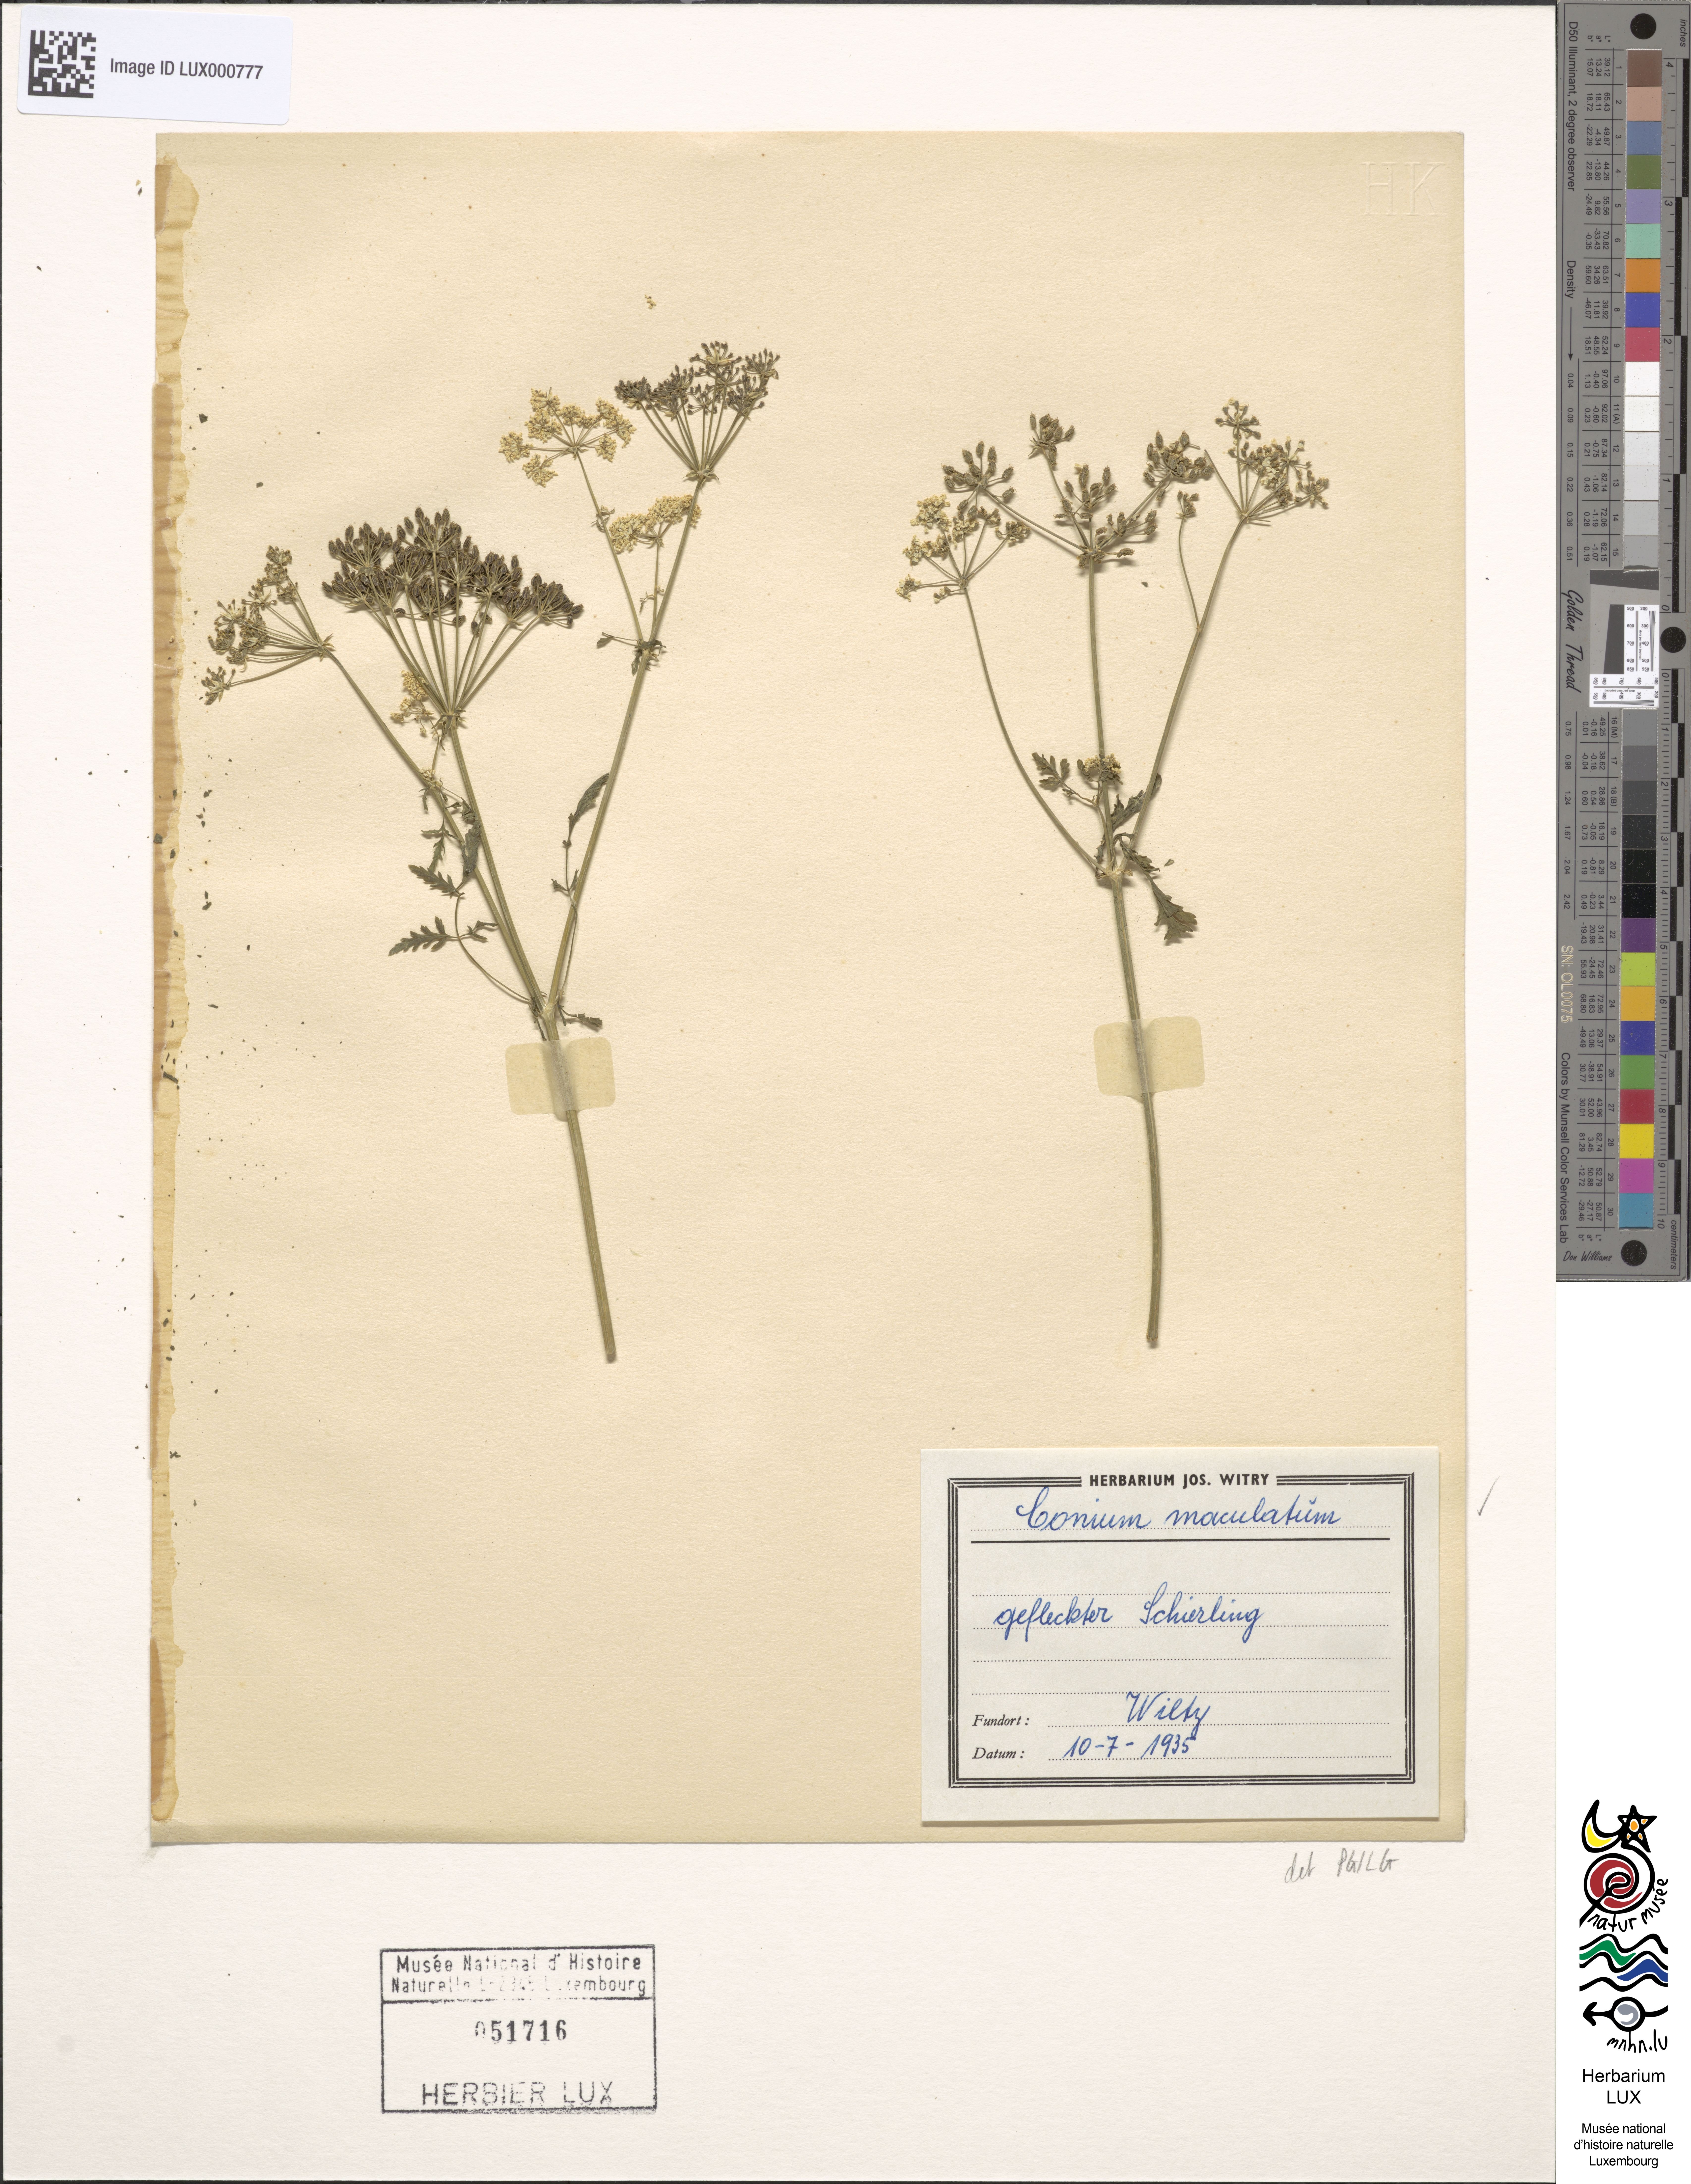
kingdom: Plantae
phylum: Tracheophyta
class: Magnoliopsida
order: Apiales
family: Apiaceae
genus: Conium
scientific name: Conium maculatum
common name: Hemlock
